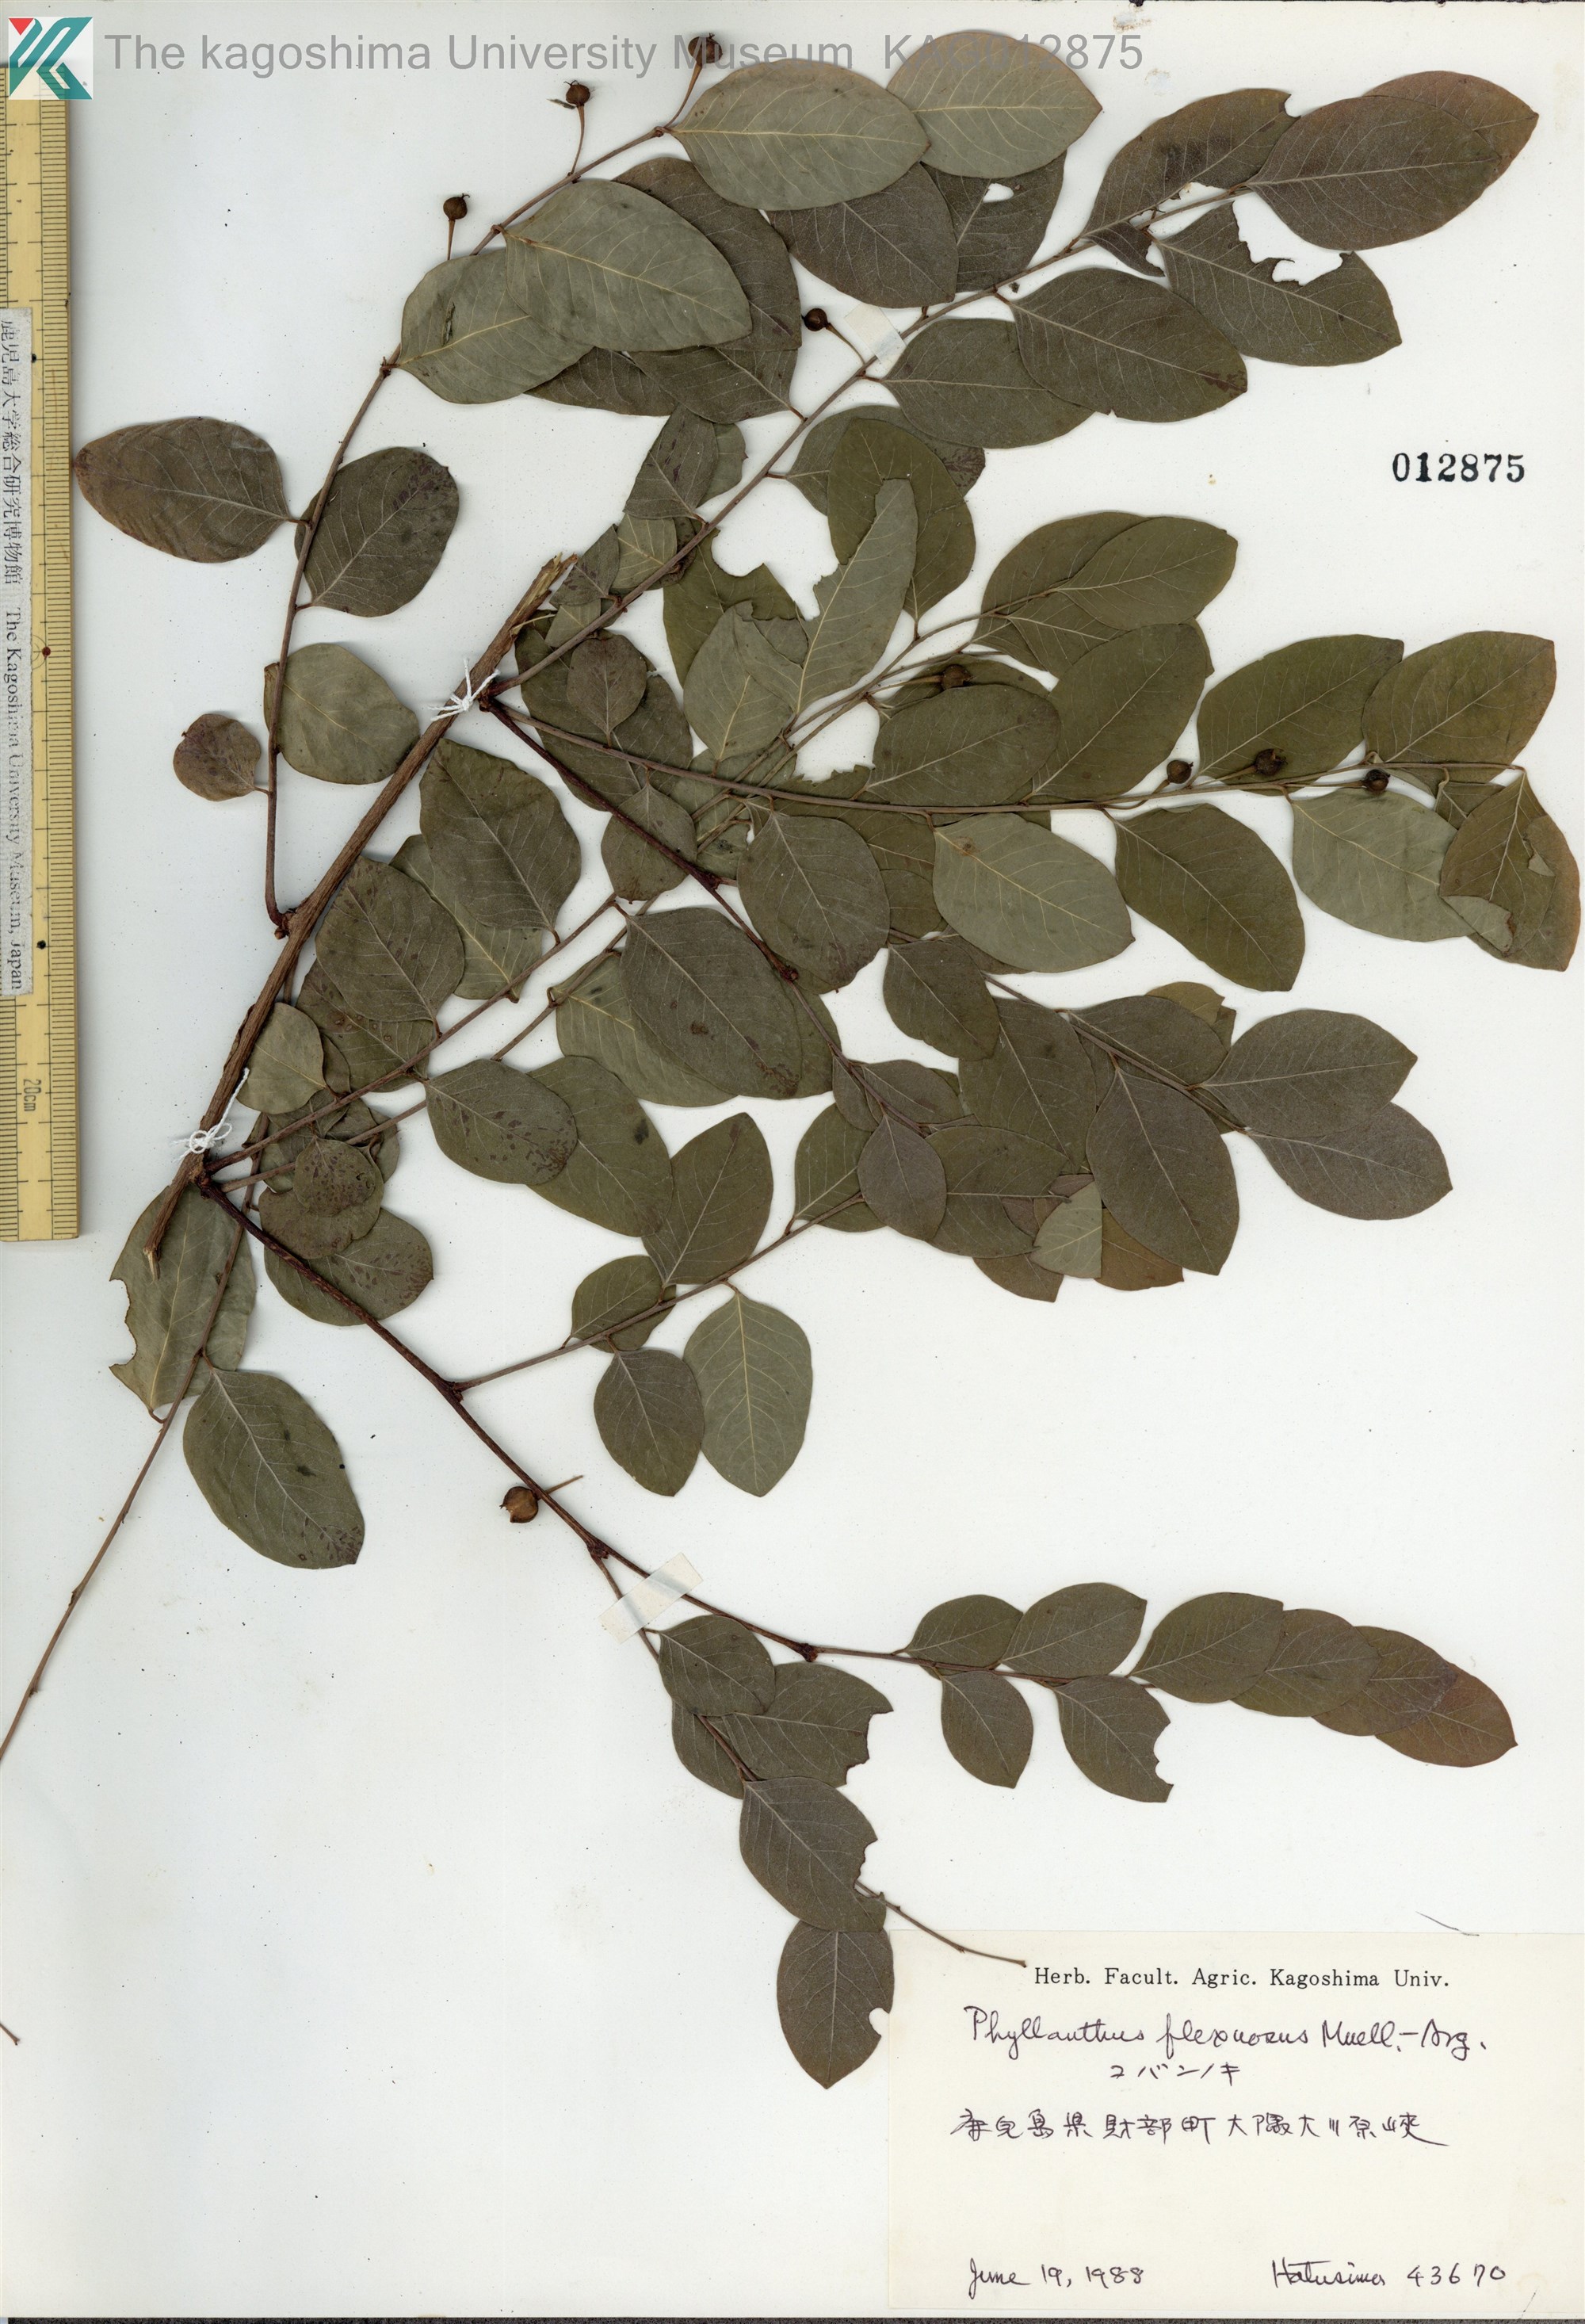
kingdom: Plantae
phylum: Tracheophyta
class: Magnoliopsida
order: Malpighiales
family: Phyllanthaceae
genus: Phyllanthus
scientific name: Phyllanthus flexuosus
